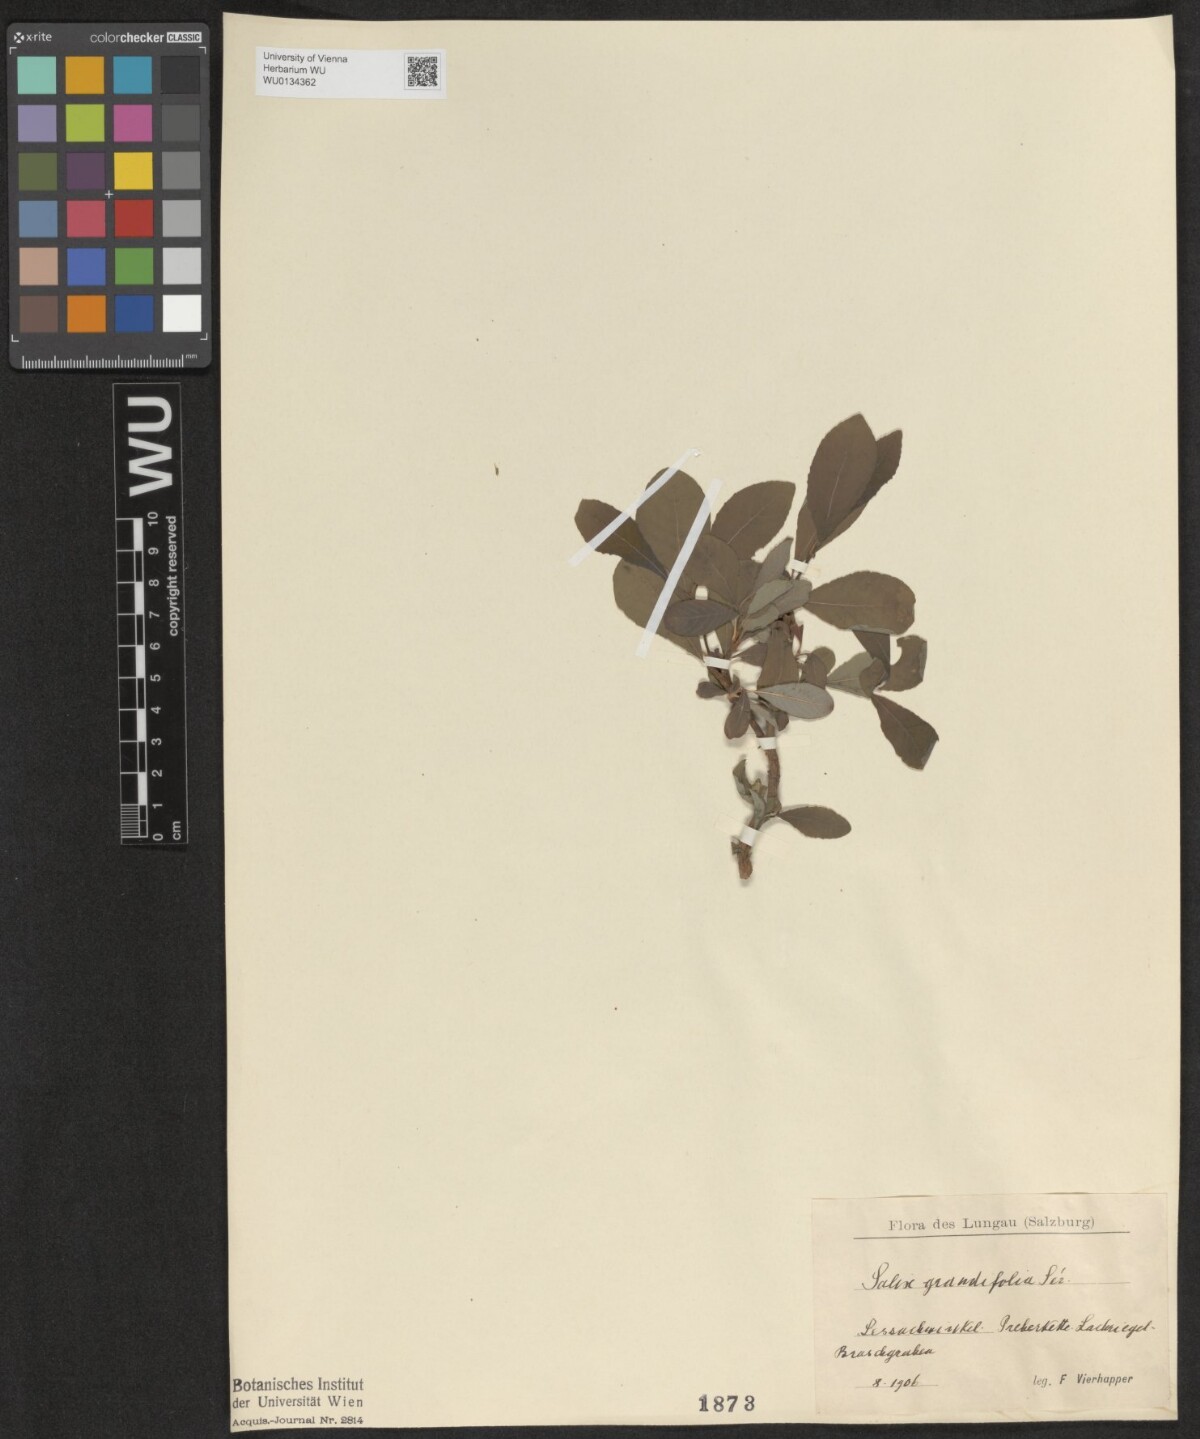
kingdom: Plantae
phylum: Tracheophyta
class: Magnoliopsida
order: Malpighiales
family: Salicaceae
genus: Salix
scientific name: Salix appendiculata
